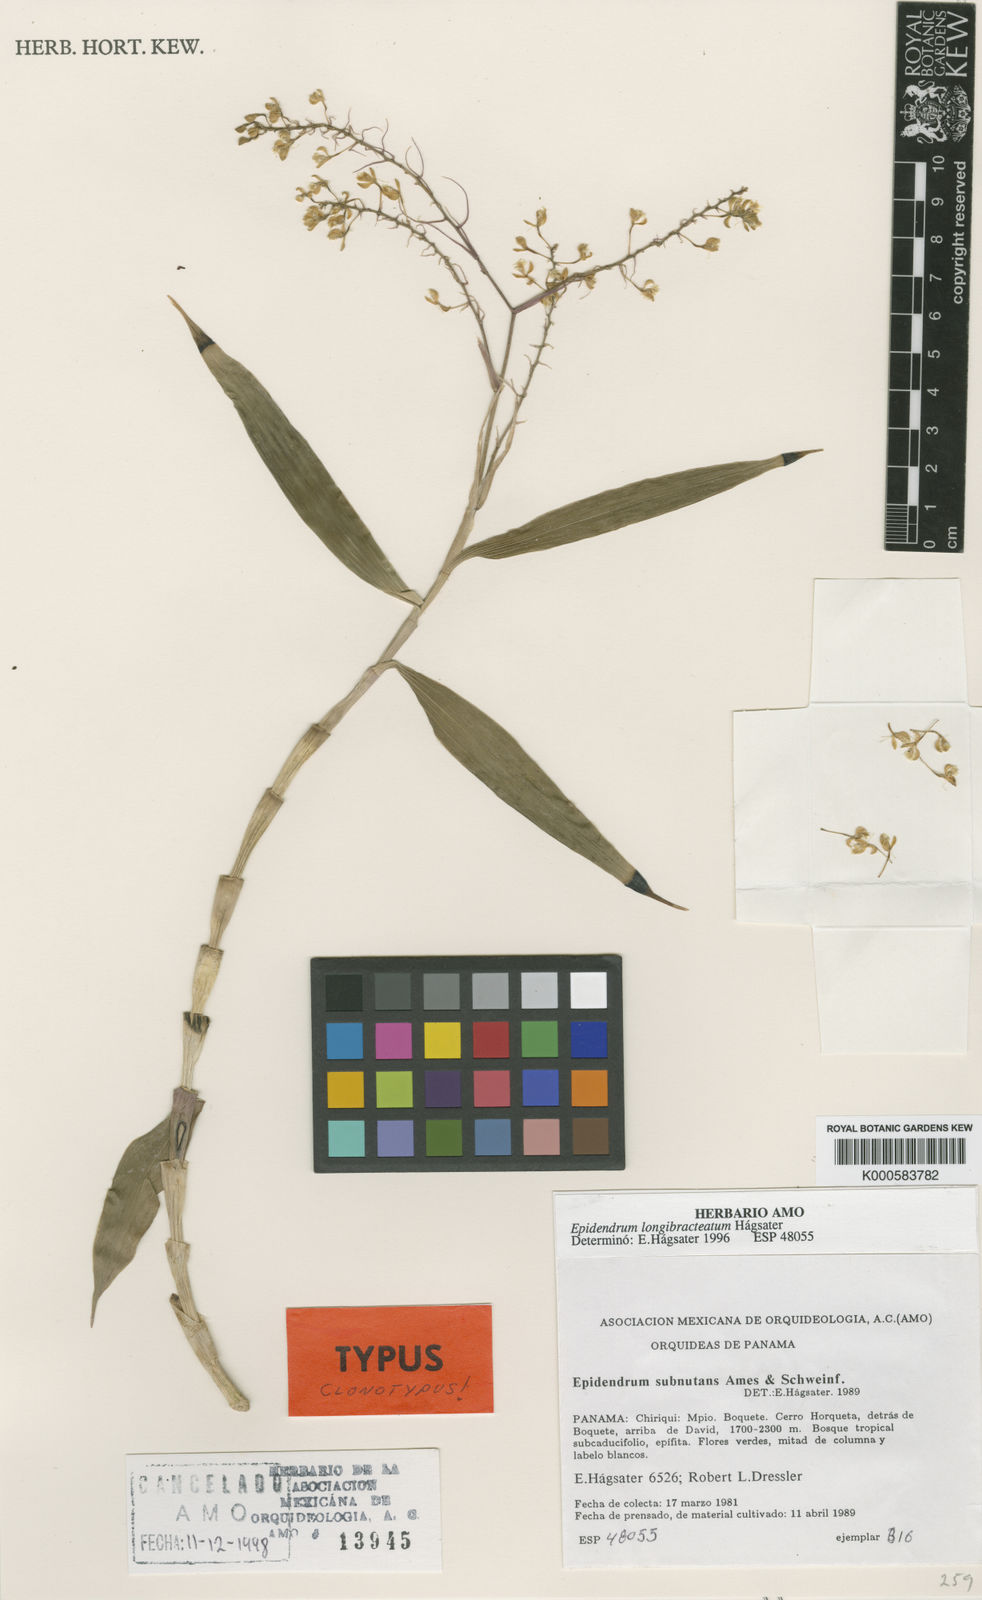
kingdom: Plantae
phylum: Tracheophyta
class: Liliopsida
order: Asparagales
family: Orchidaceae
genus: Epidendrum
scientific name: Epidendrum
